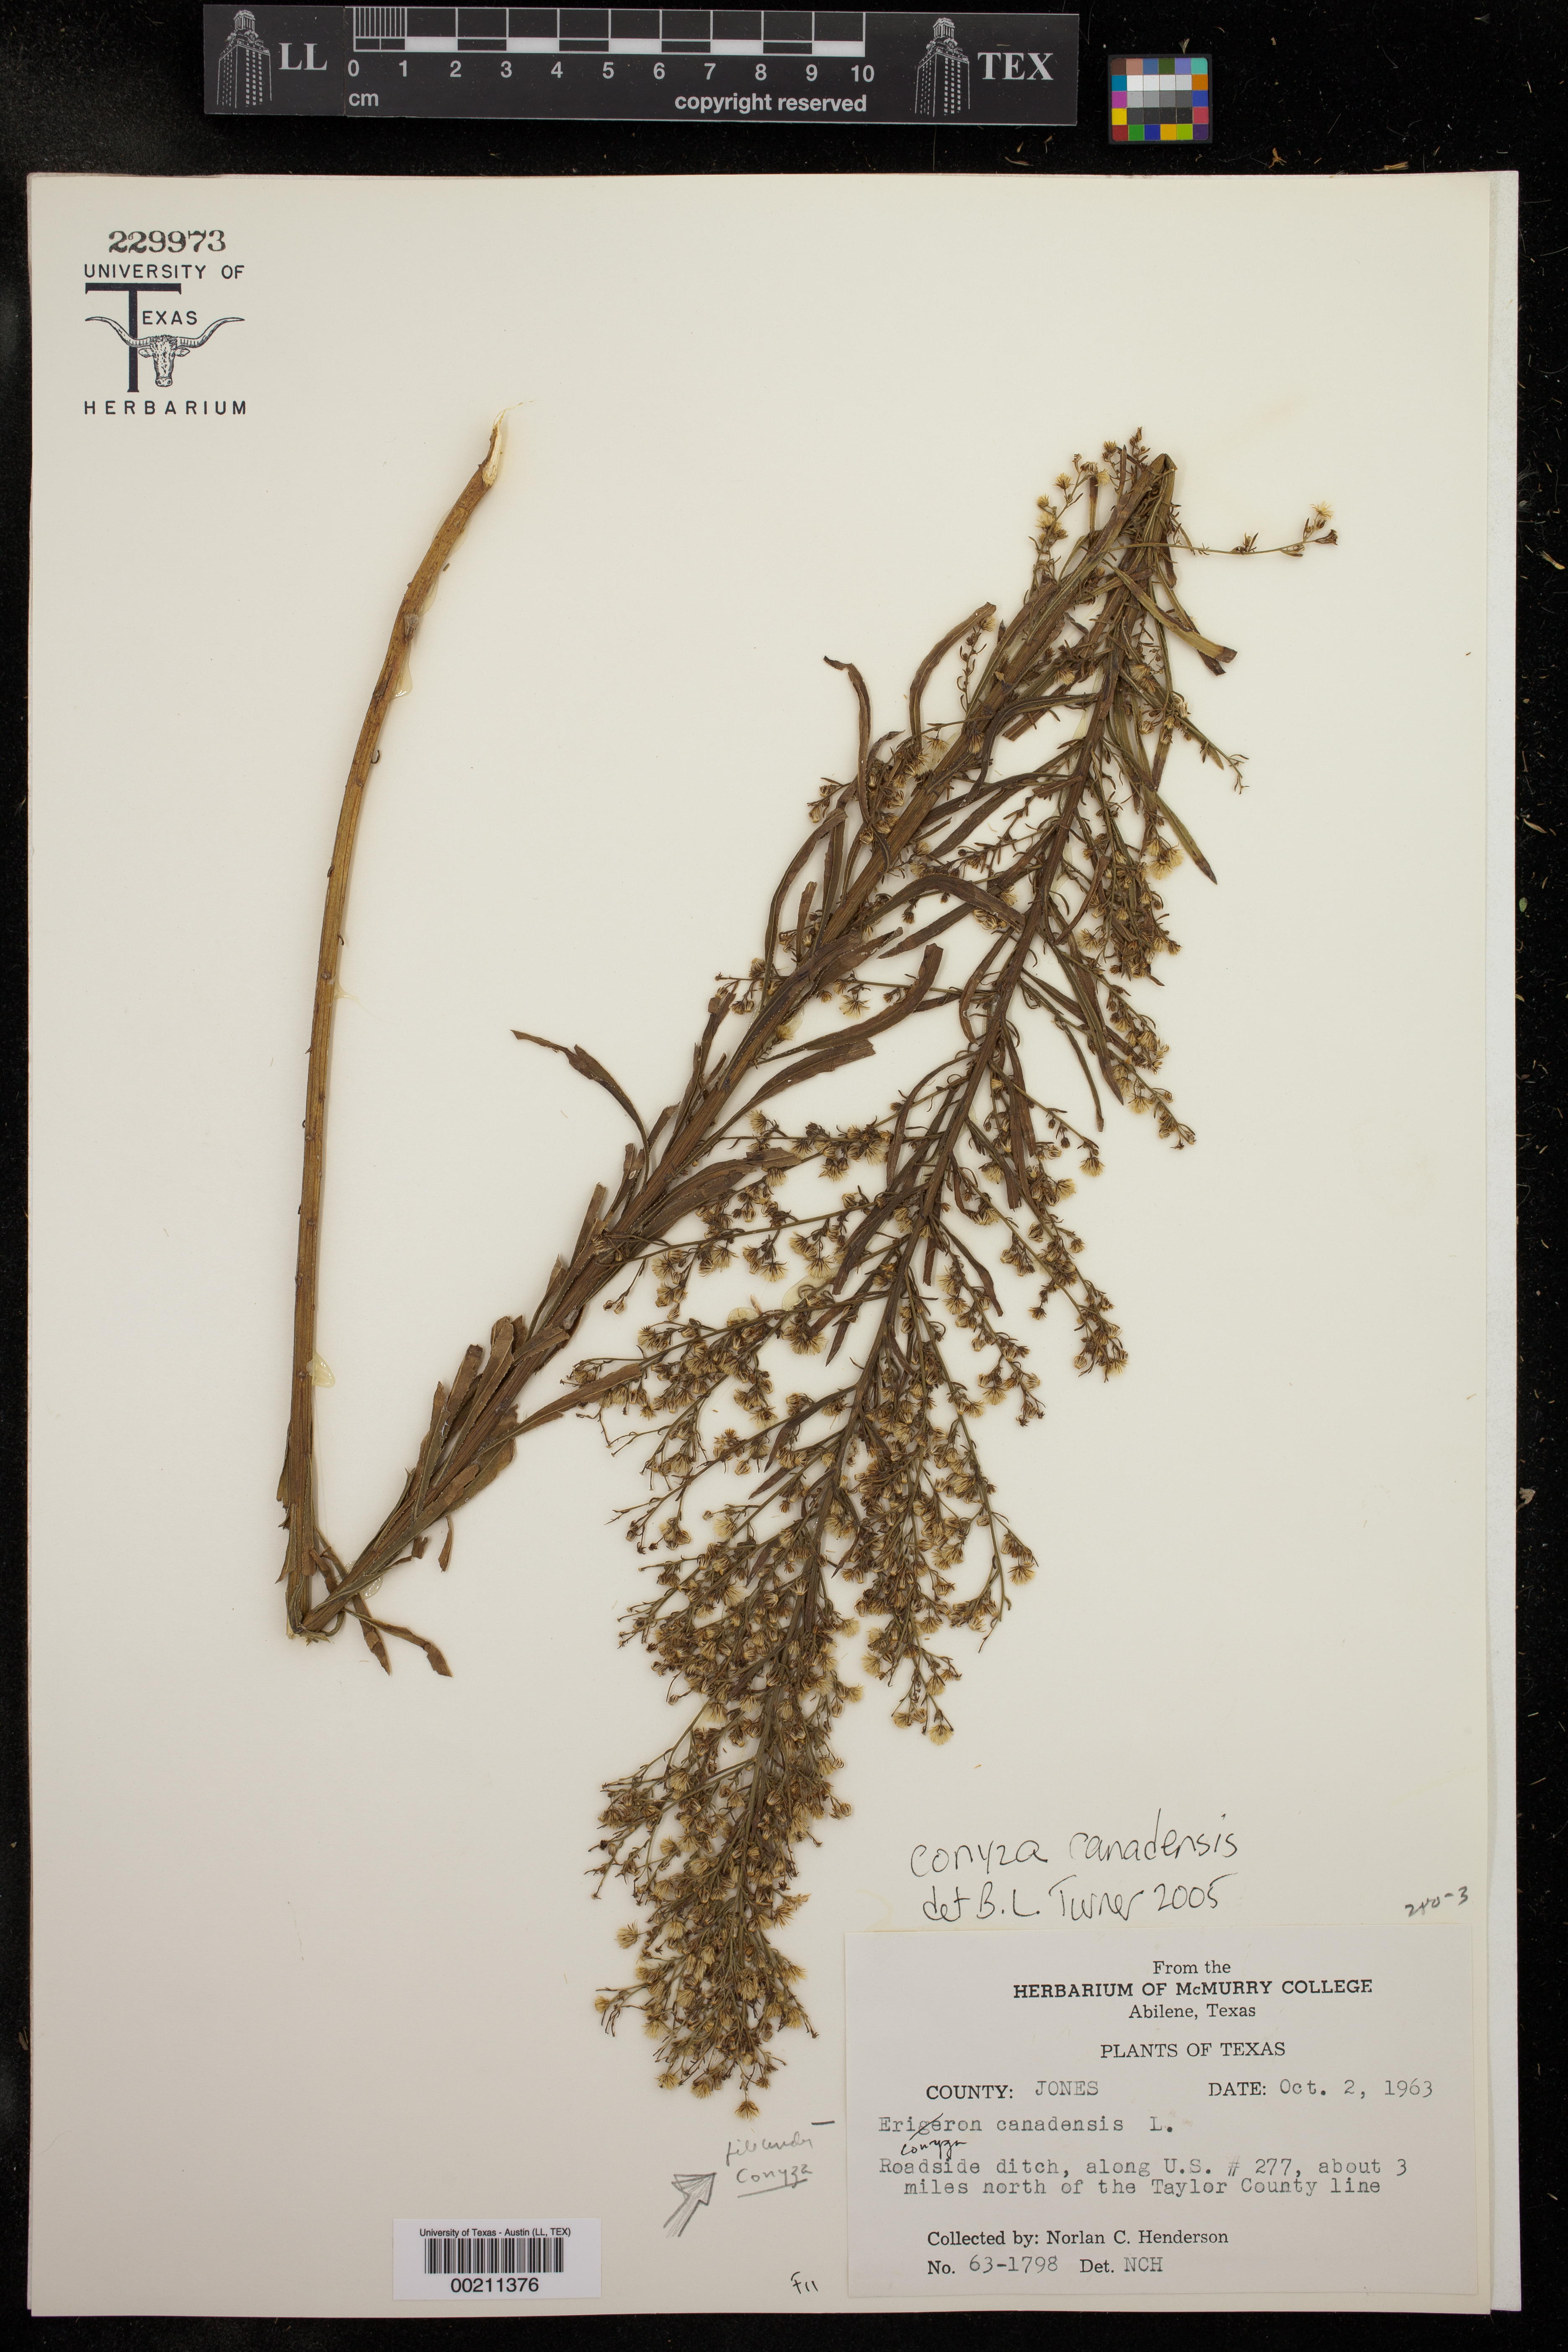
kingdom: Plantae
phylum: Tracheophyta
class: Magnoliopsida
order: Asterales
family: Asteraceae
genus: Erigeron
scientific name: Erigeron canadensis
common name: Canadian fleabane
